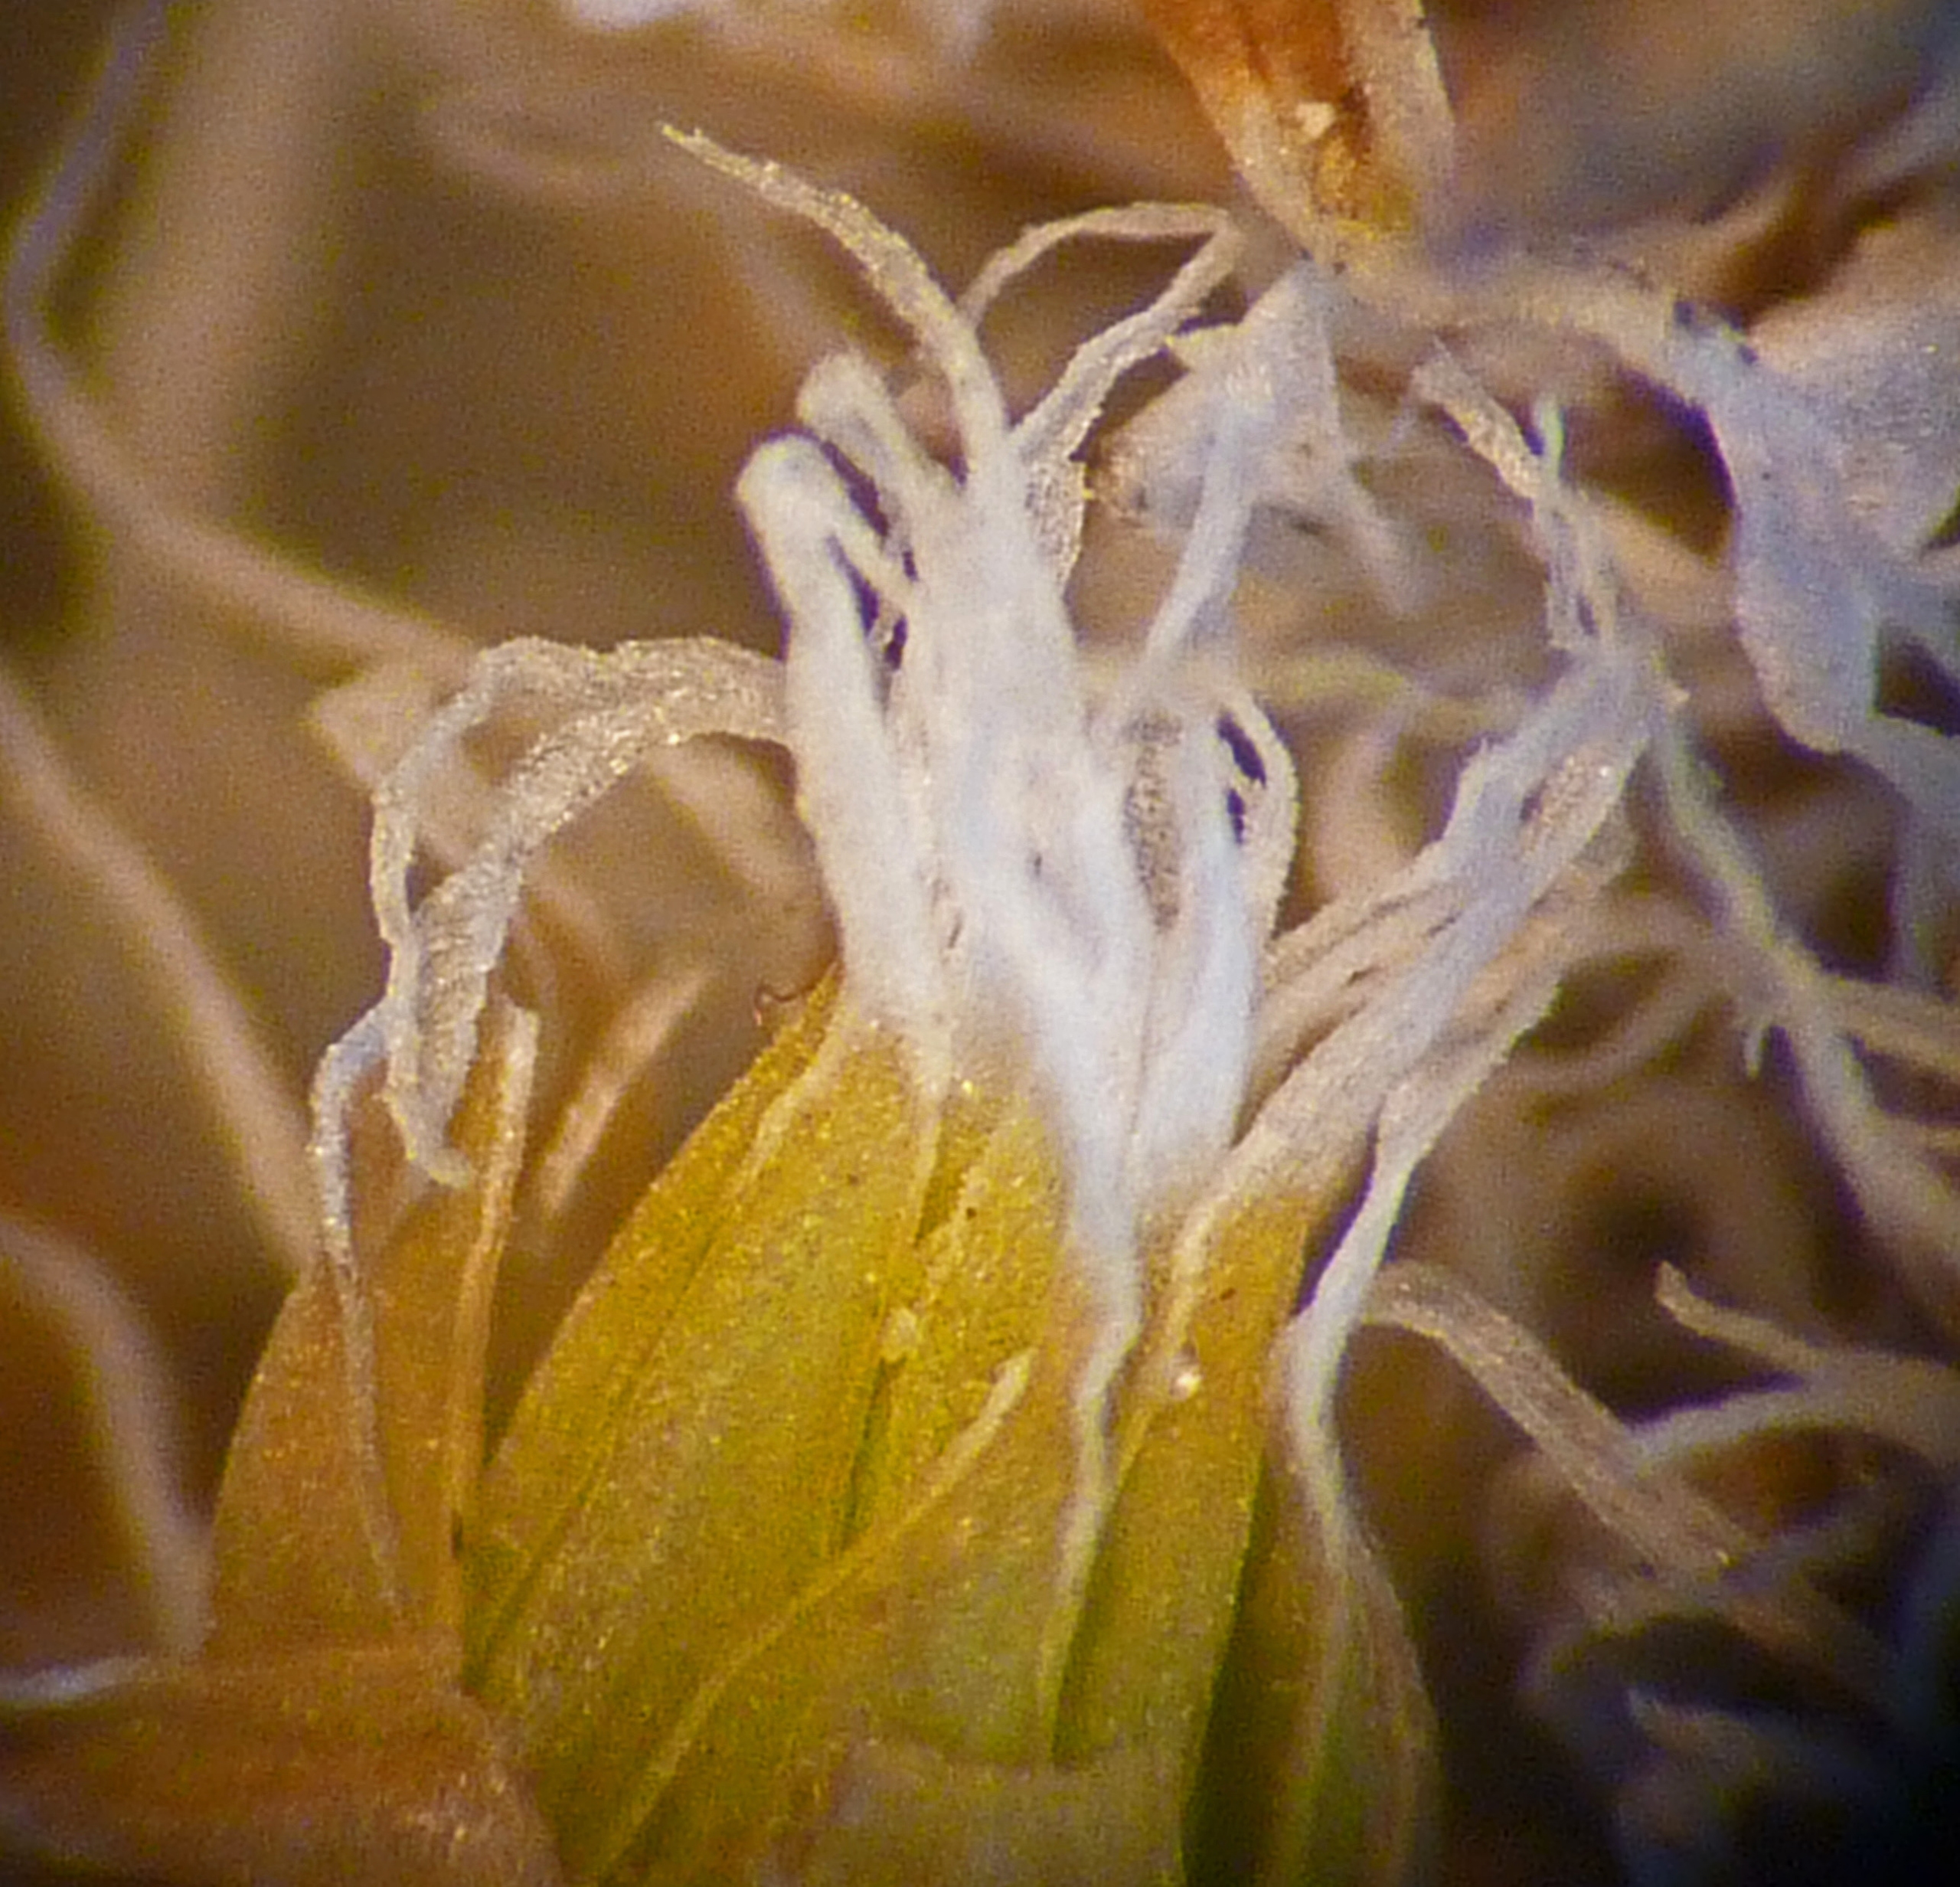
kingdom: Plantae
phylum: Bryophyta
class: Bryopsida
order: Grimmiales
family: Grimmiaceae
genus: Niphotrichum
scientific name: Niphotrichum elongatum
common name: Lang børstemos
